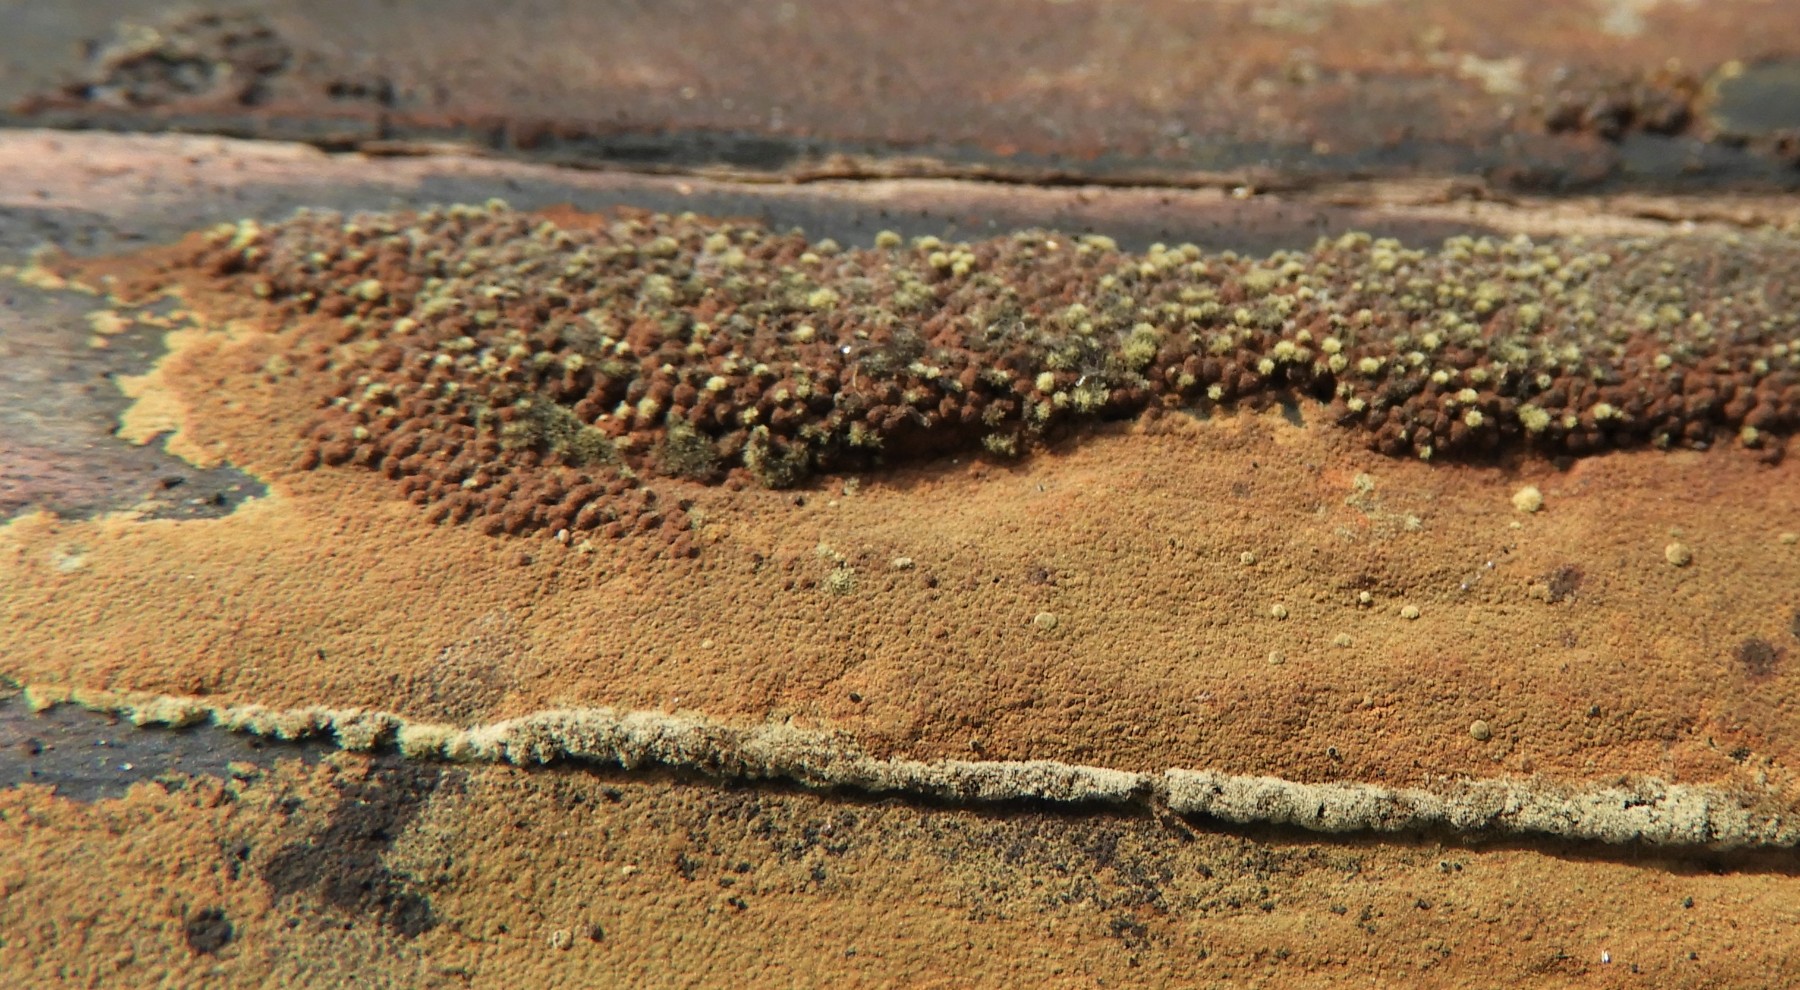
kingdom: Fungi
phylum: Ascomycota
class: Sordariomycetes
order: Xylariales
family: Hypoxylaceae
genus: Hypoxylon
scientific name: Hypoxylon rubiginosum
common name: rustfarvet kulbær
